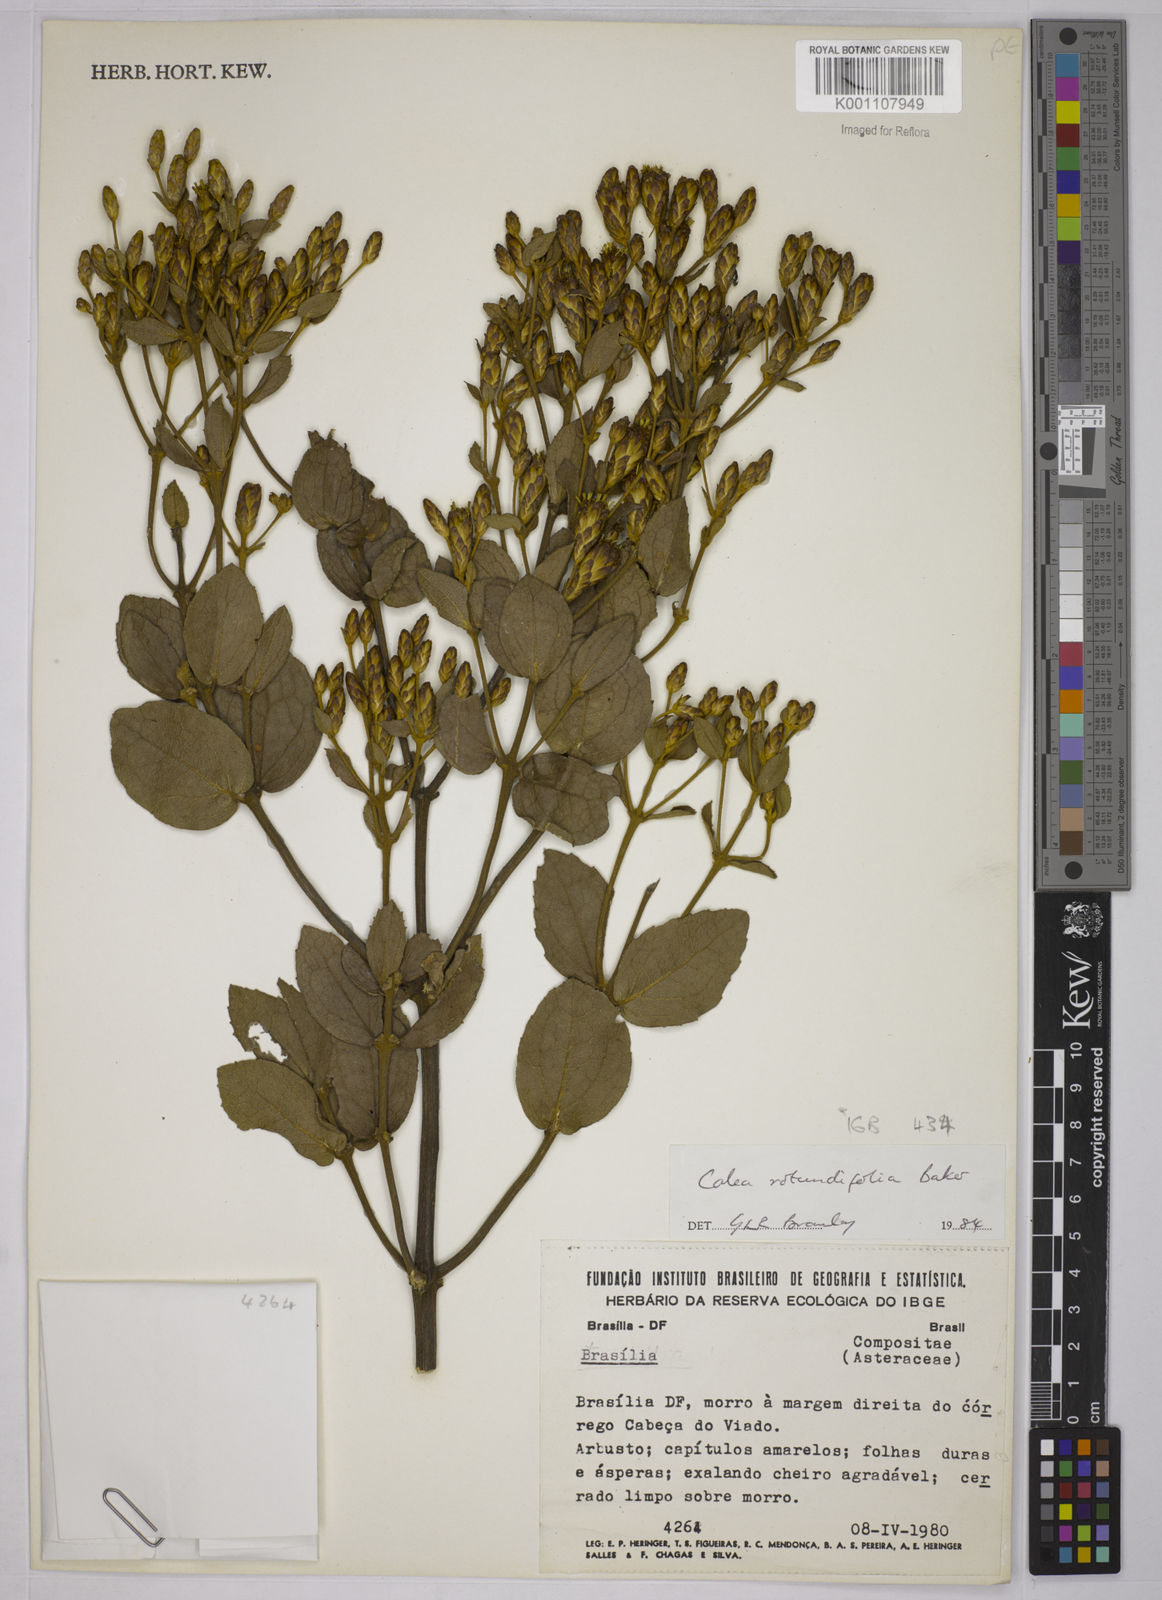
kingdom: Plantae
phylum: Tracheophyta
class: Magnoliopsida
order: Asterales
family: Asteraceae
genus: Calea
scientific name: Calea rotundifolia
